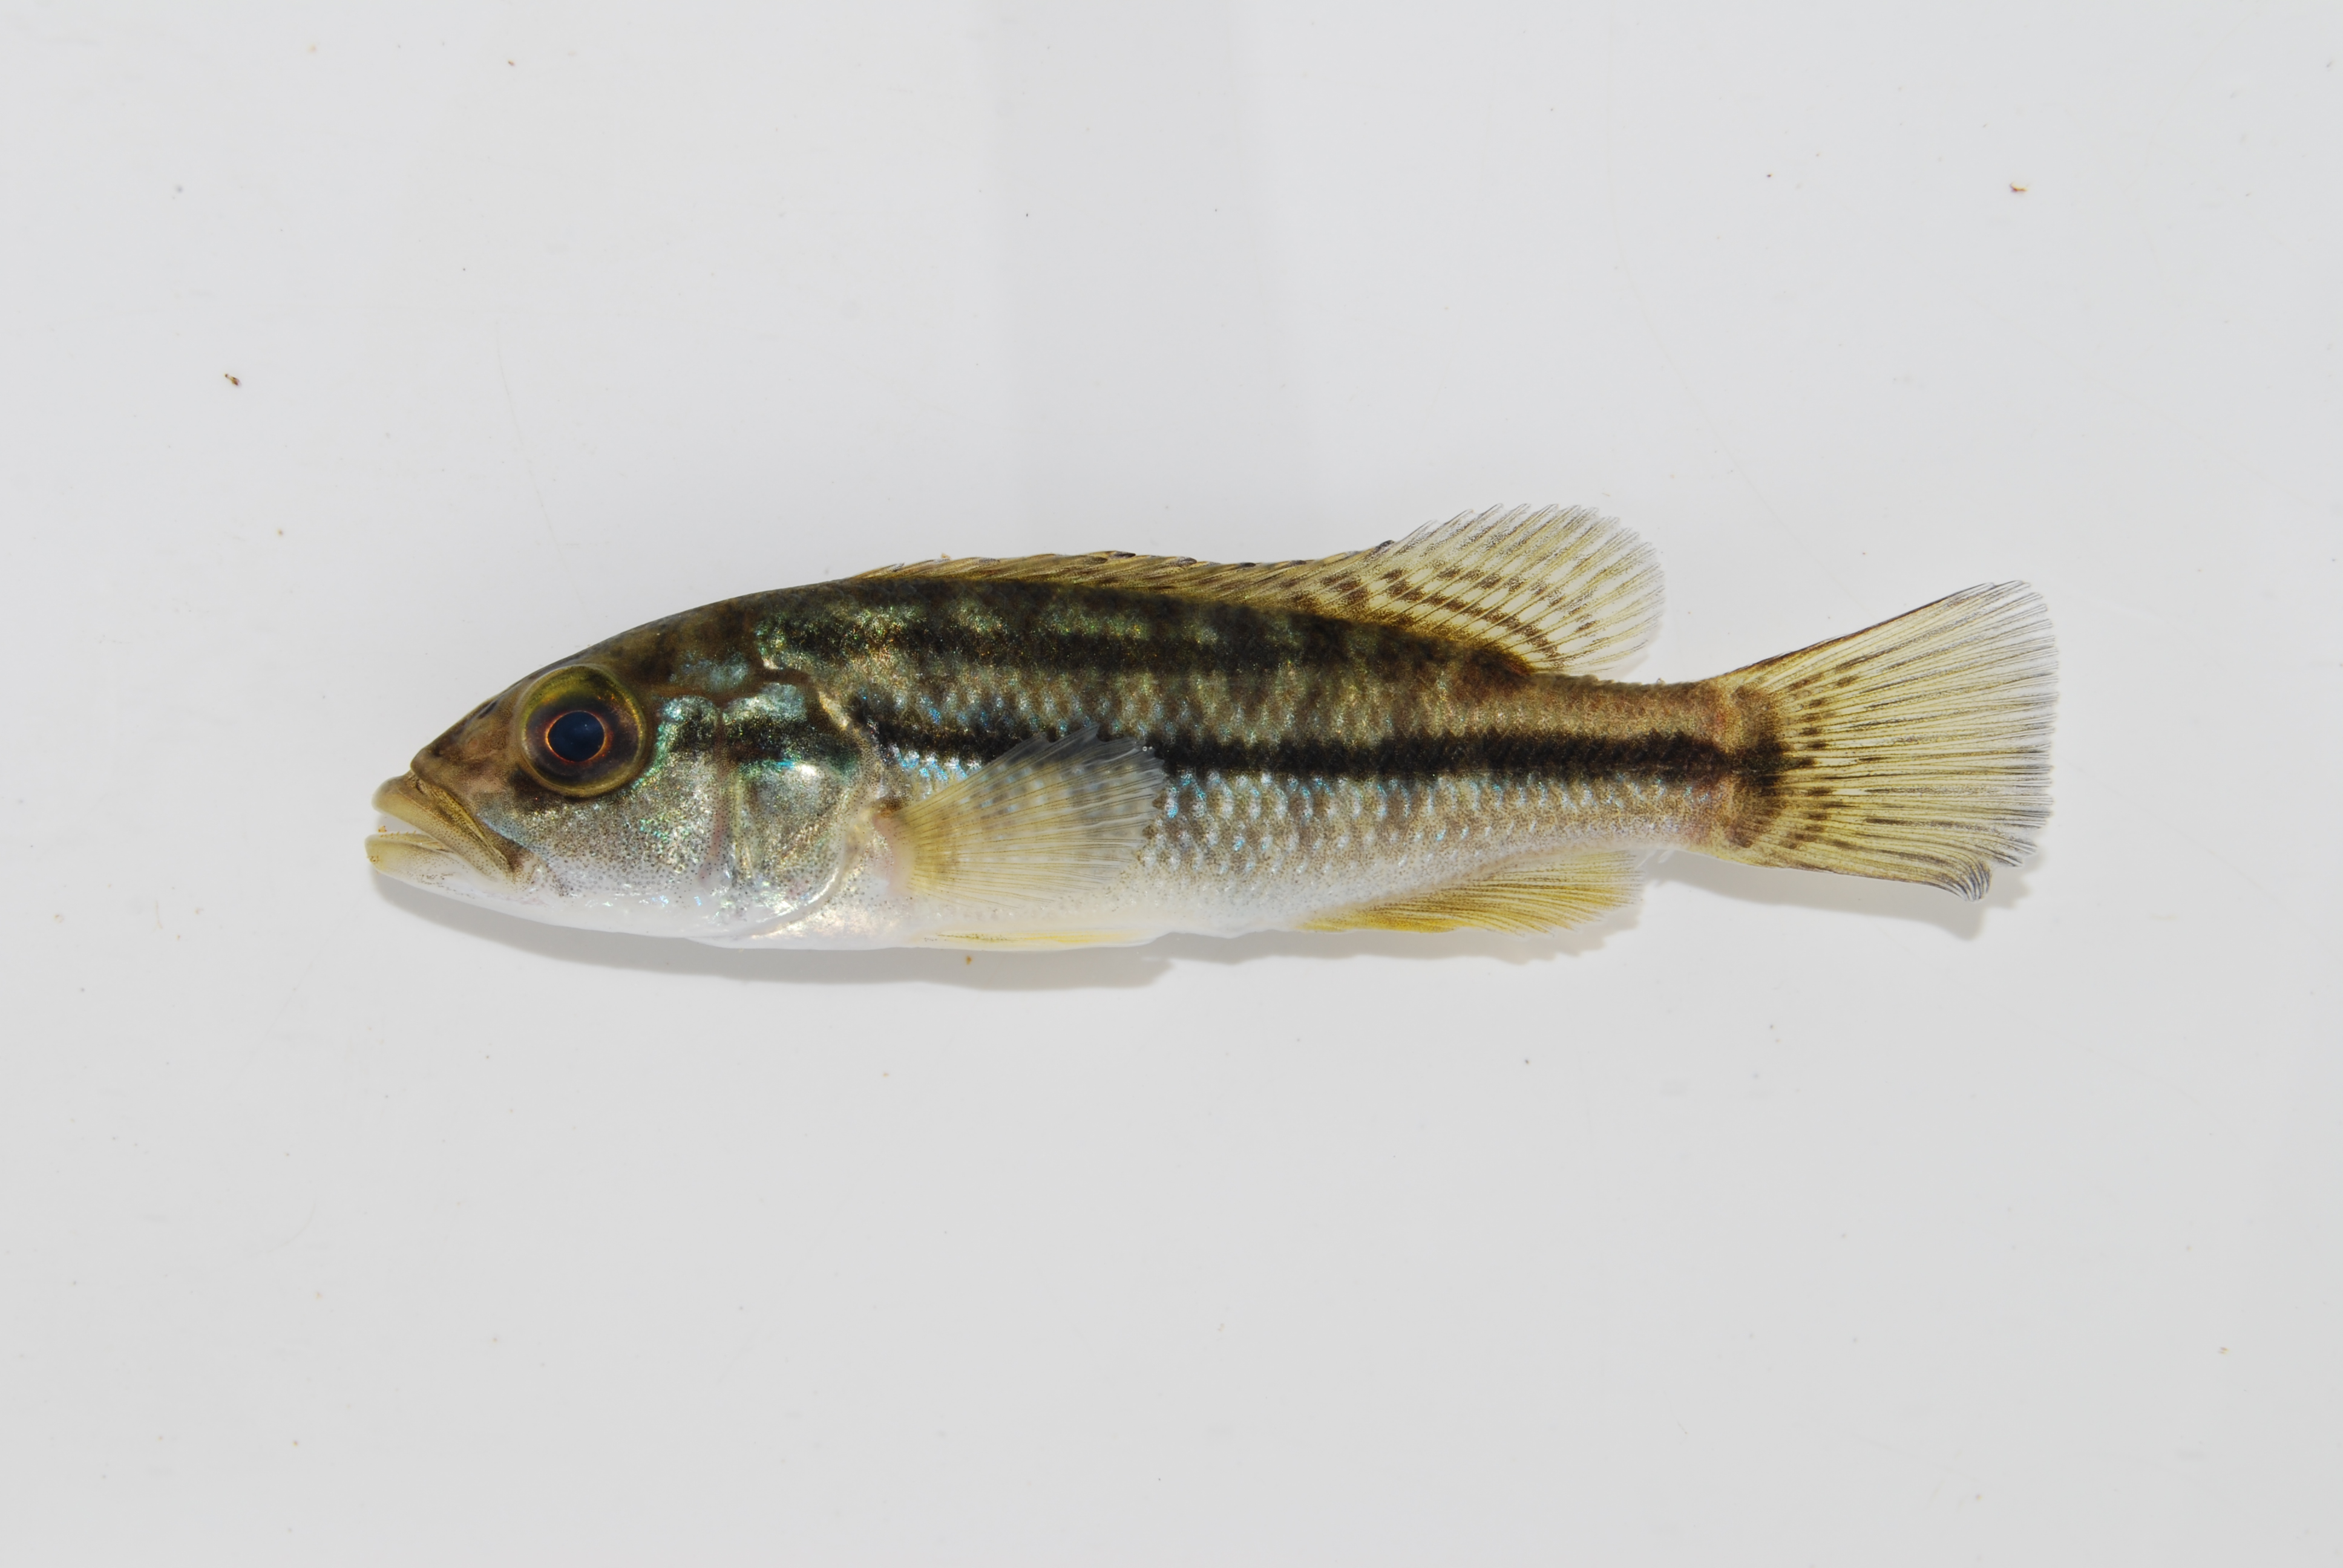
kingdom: Animalia
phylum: Chordata
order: Perciformes
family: Cichlidae
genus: Serranochromis
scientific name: Serranochromis
